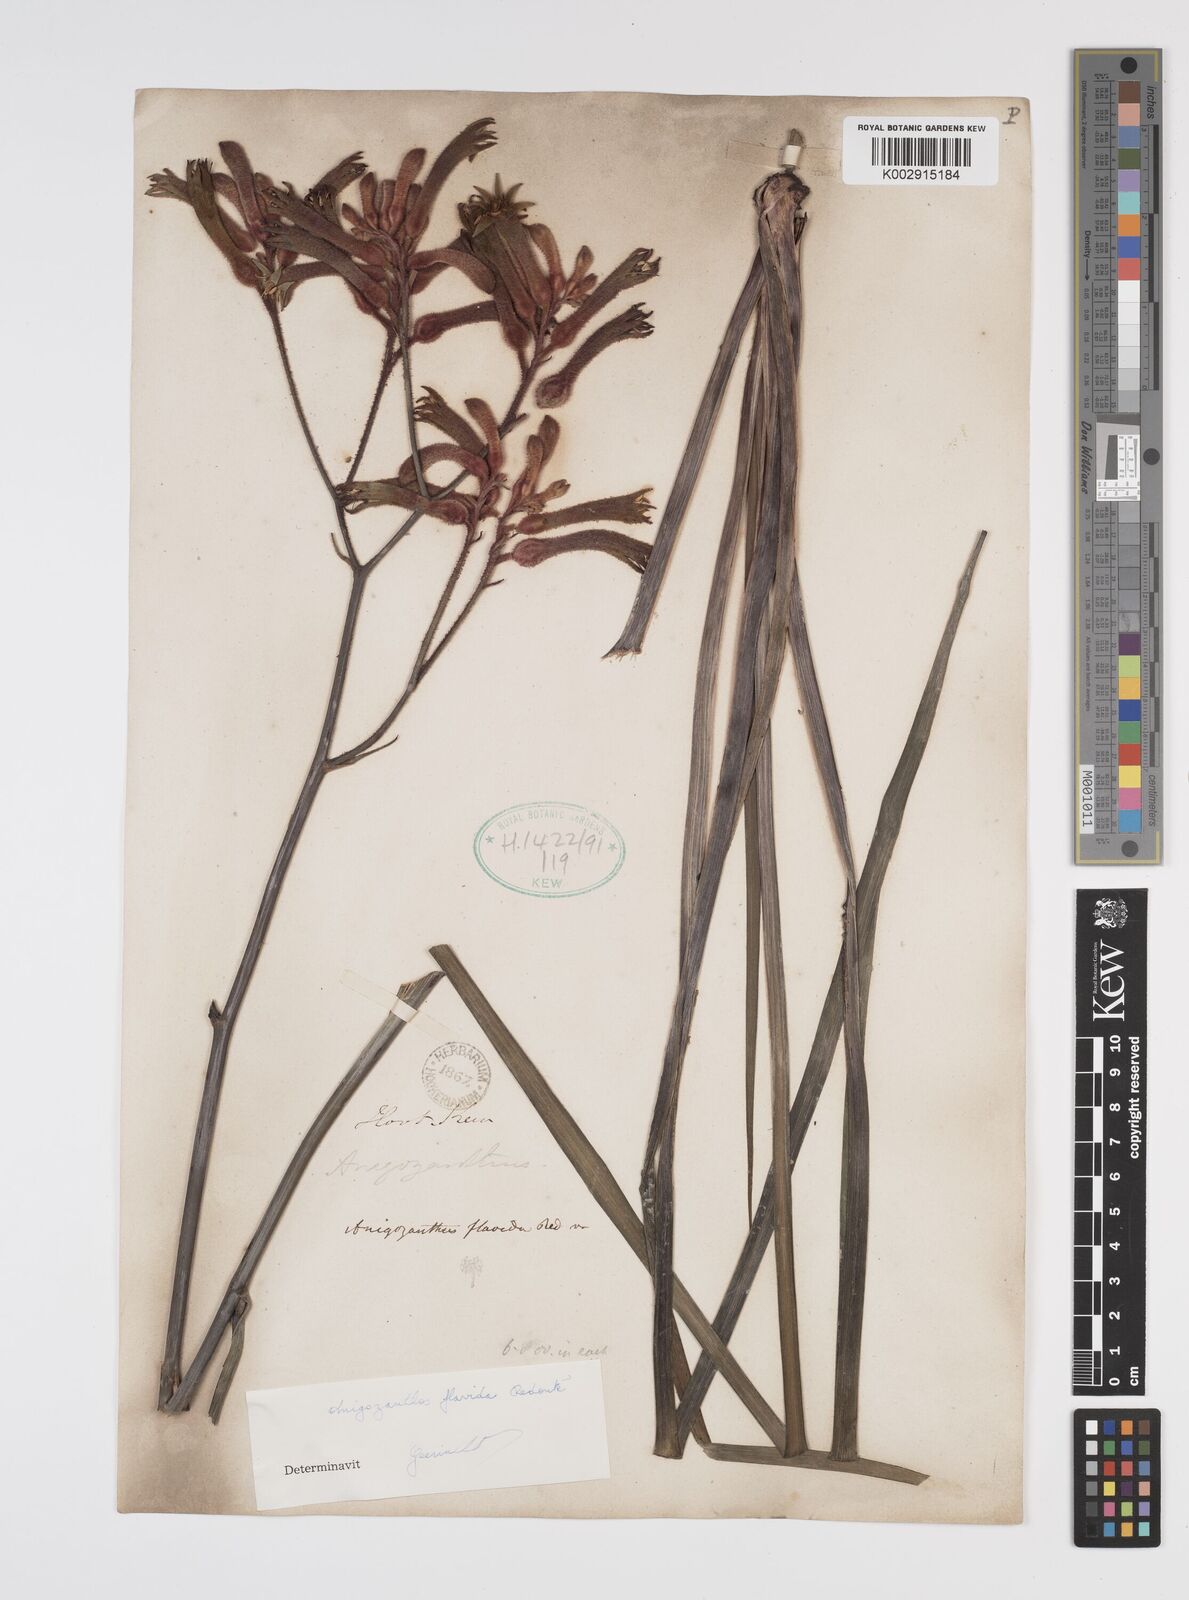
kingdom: Plantae
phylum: Tracheophyta
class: Liliopsida
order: Commelinales
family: Haemodoraceae
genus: Anigozanthos
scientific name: Anigozanthos flavidus
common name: Evergreen kangaroo-paw
